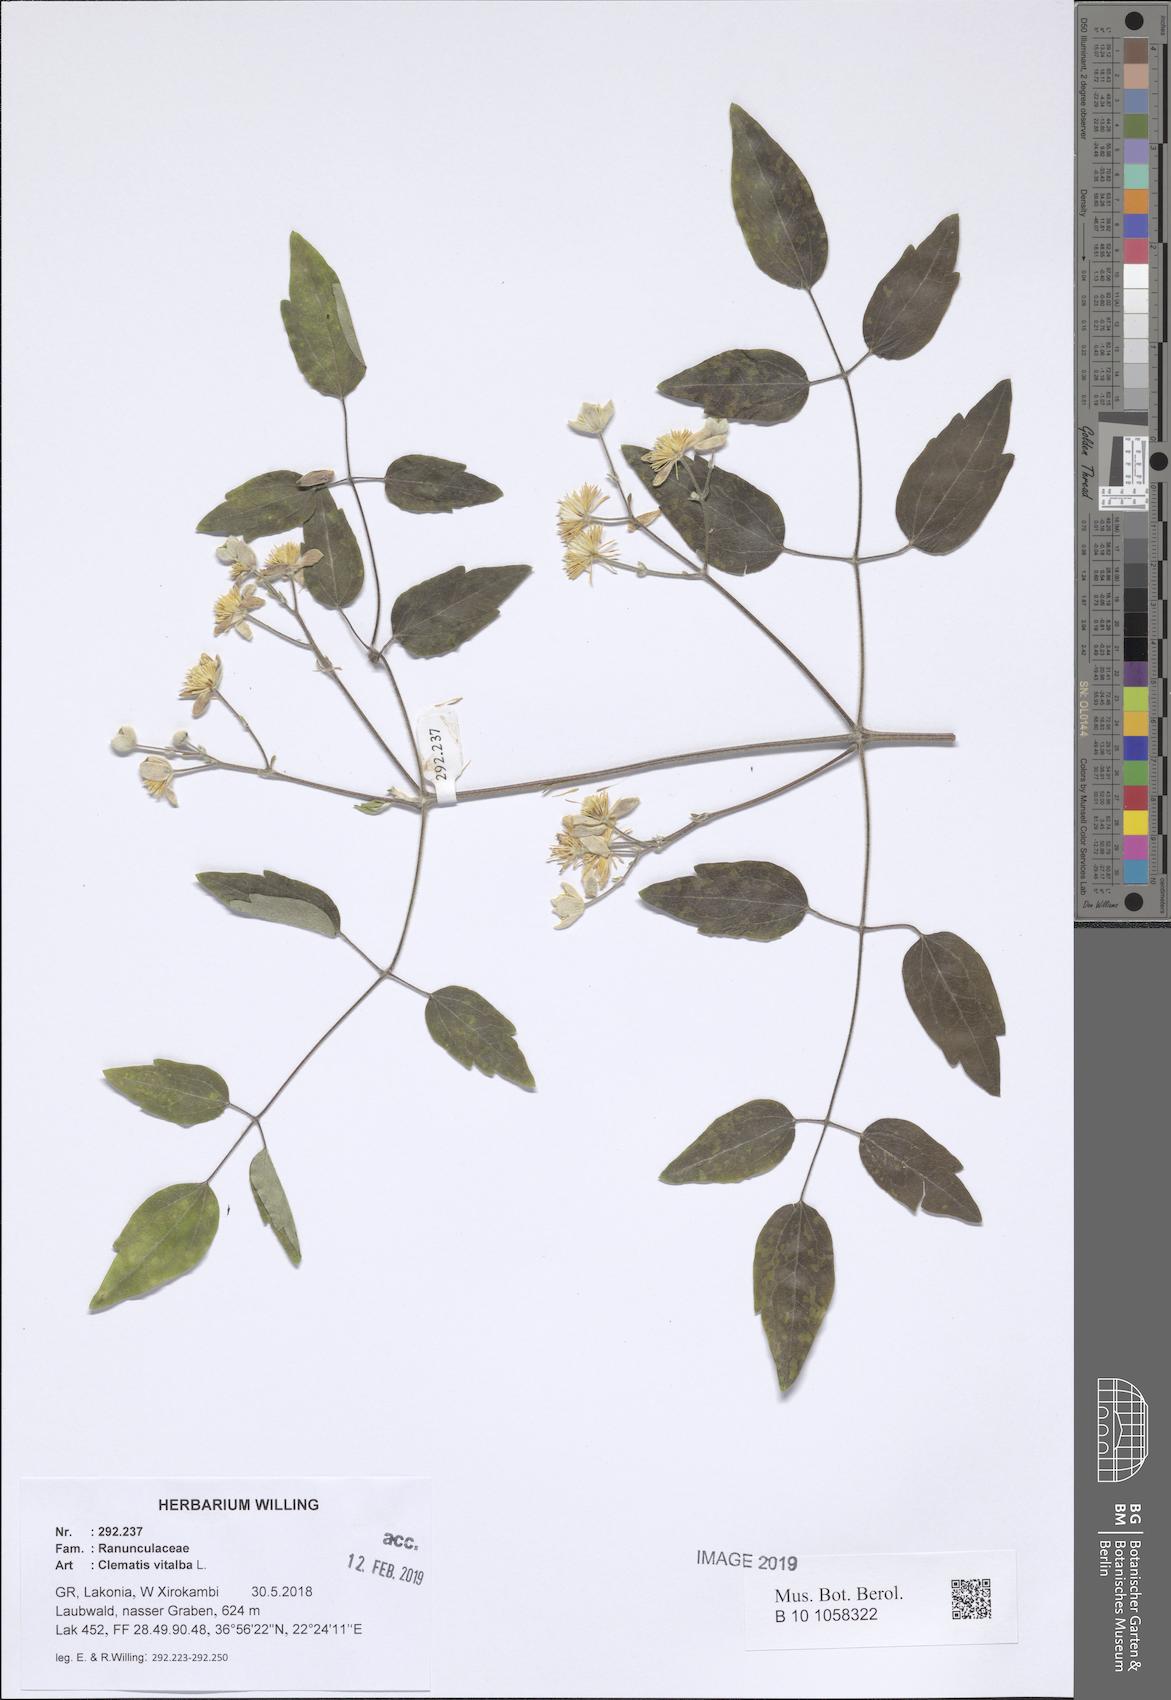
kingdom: Plantae
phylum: Tracheophyta
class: Magnoliopsida
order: Ranunculales
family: Ranunculaceae
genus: Clematis
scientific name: Clematis vitalba
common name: Evergreen clematis
